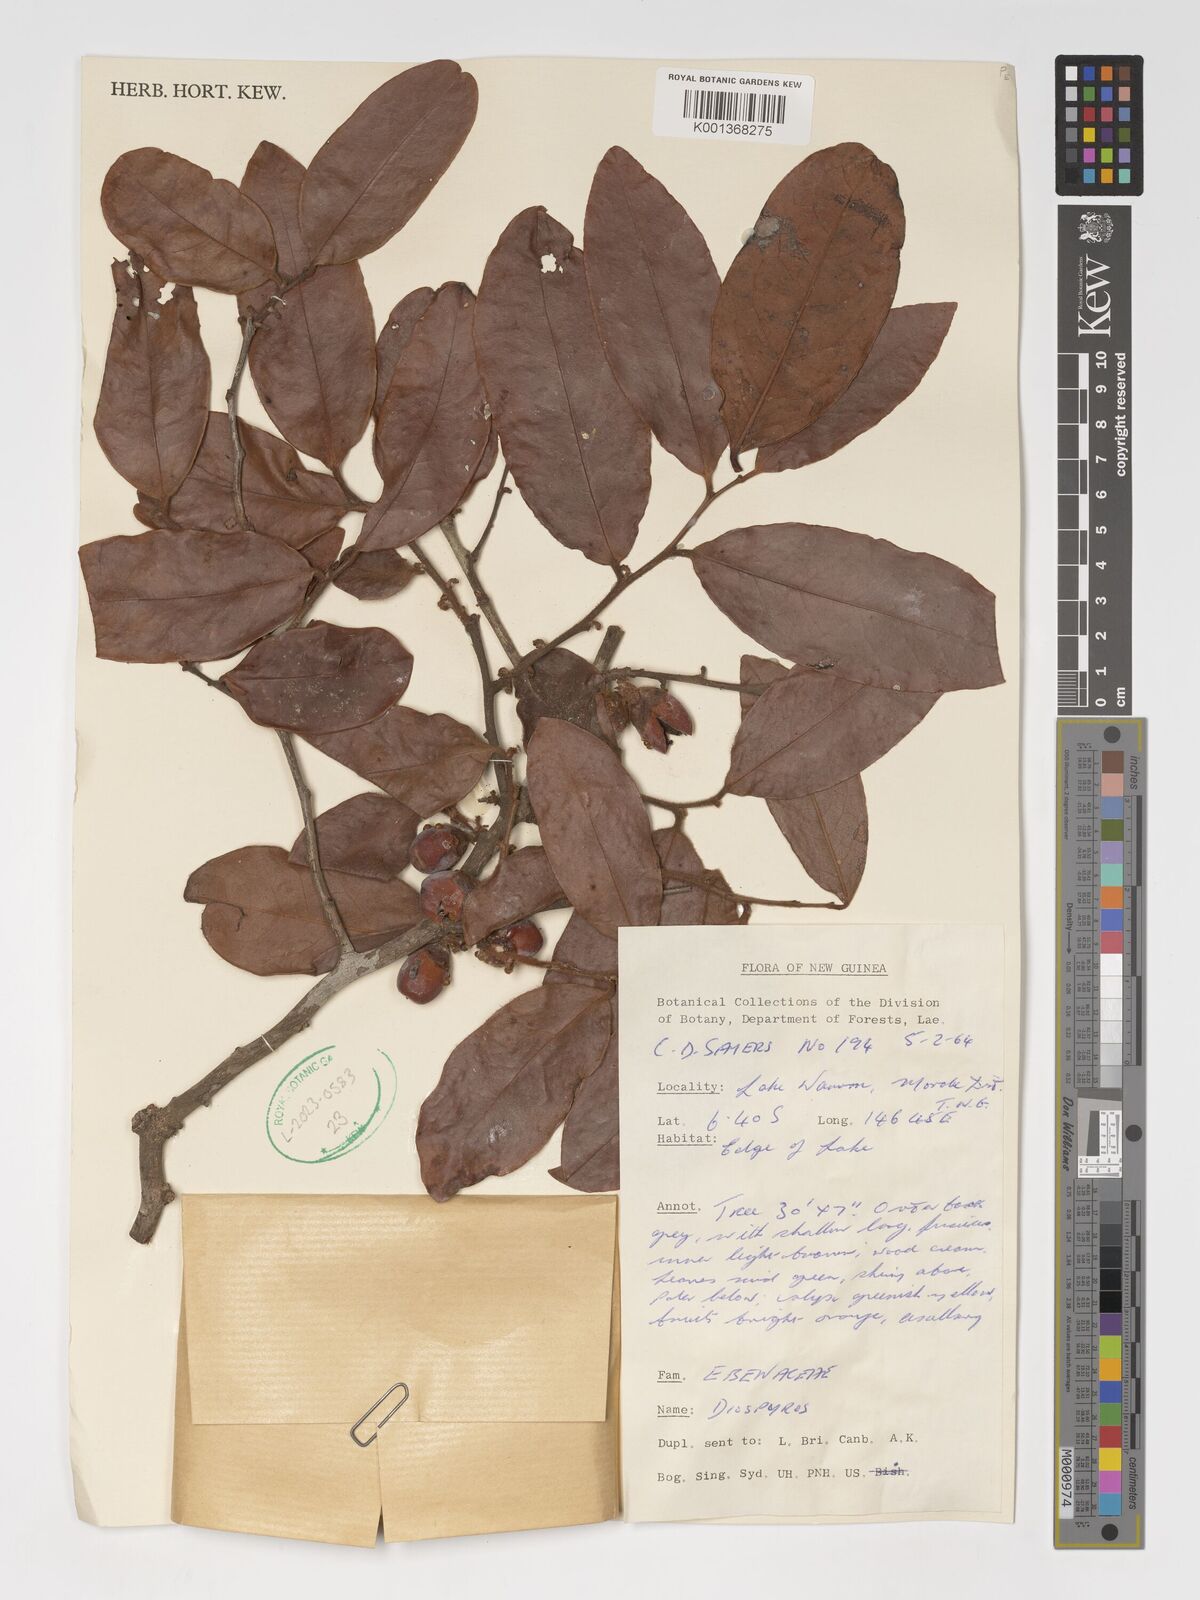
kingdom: Plantae
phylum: Tracheophyta
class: Magnoliopsida
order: Ericales
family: Ebenaceae
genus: Diospyros
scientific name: Diospyros
